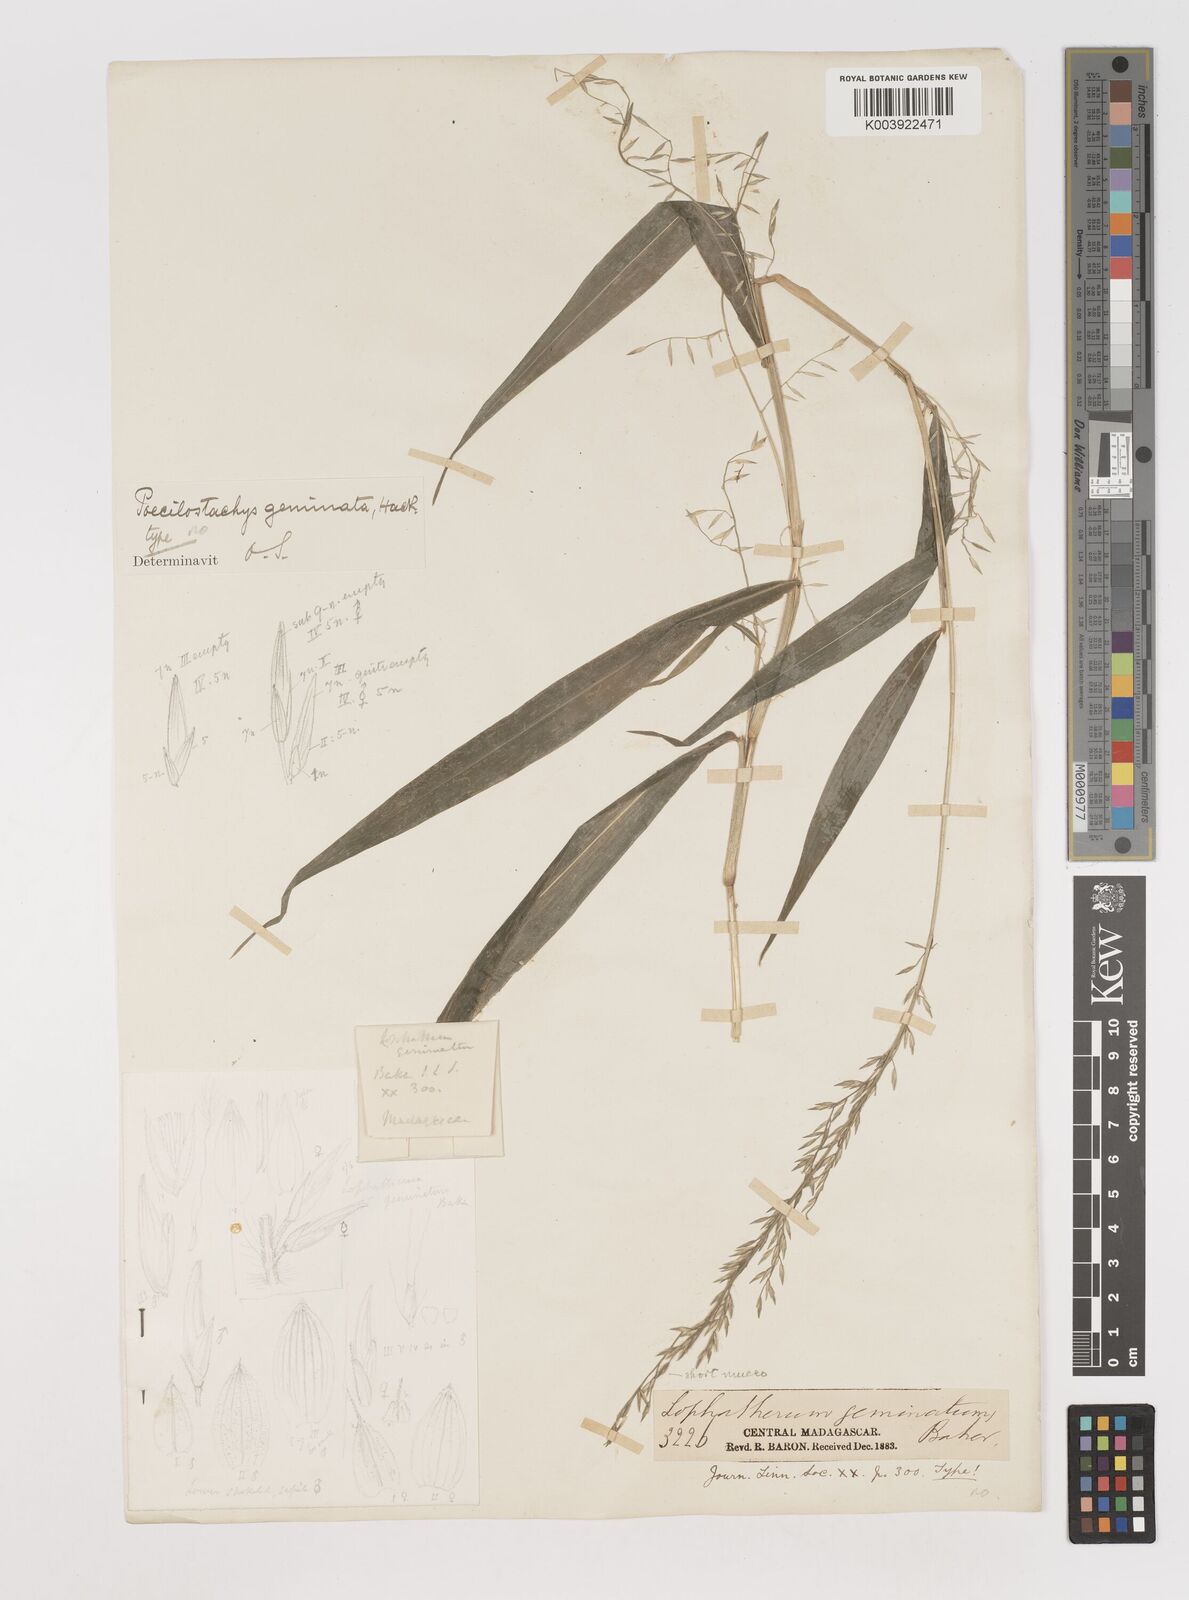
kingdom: Plantae
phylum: Tracheophyta
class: Liliopsida
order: Poales
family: Poaceae
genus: Poecilostachys
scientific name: Poecilostachys geminata
